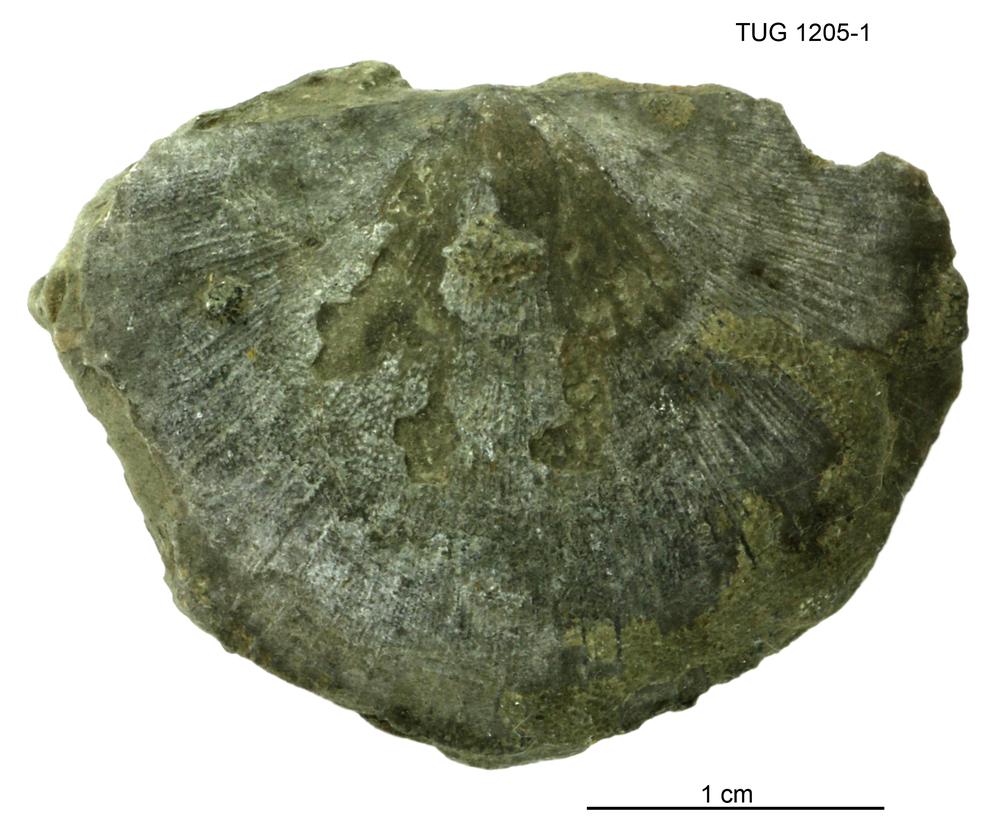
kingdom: Animalia
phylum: Brachiopoda
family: Stropheodontidae
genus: Strophonella
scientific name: Strophonella
